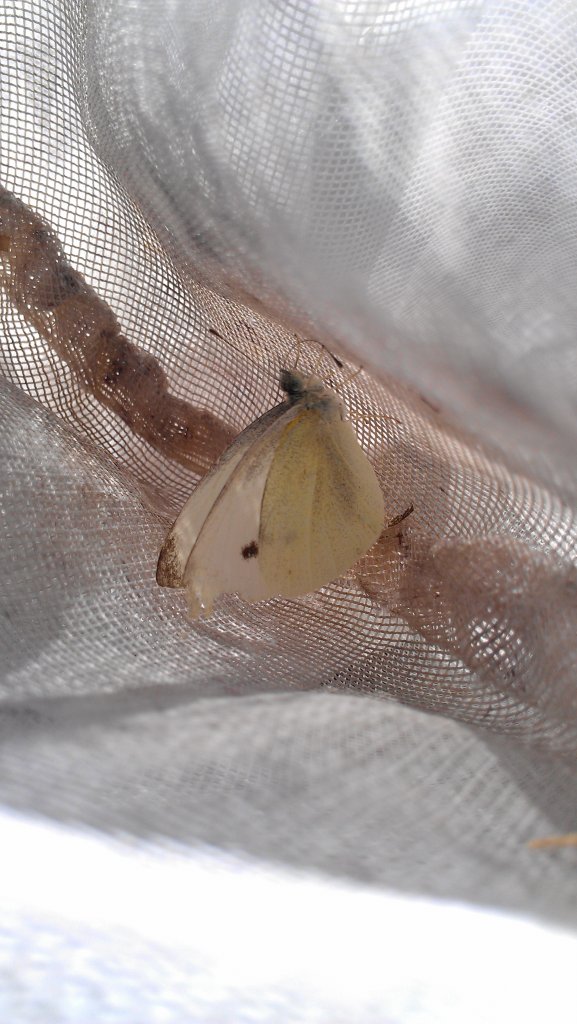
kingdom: Animalia
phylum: Arthropoda
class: Insecta
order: Lepidoptera
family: Pieridae
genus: Pieris
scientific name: Pieris rapae
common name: Cabbage White
